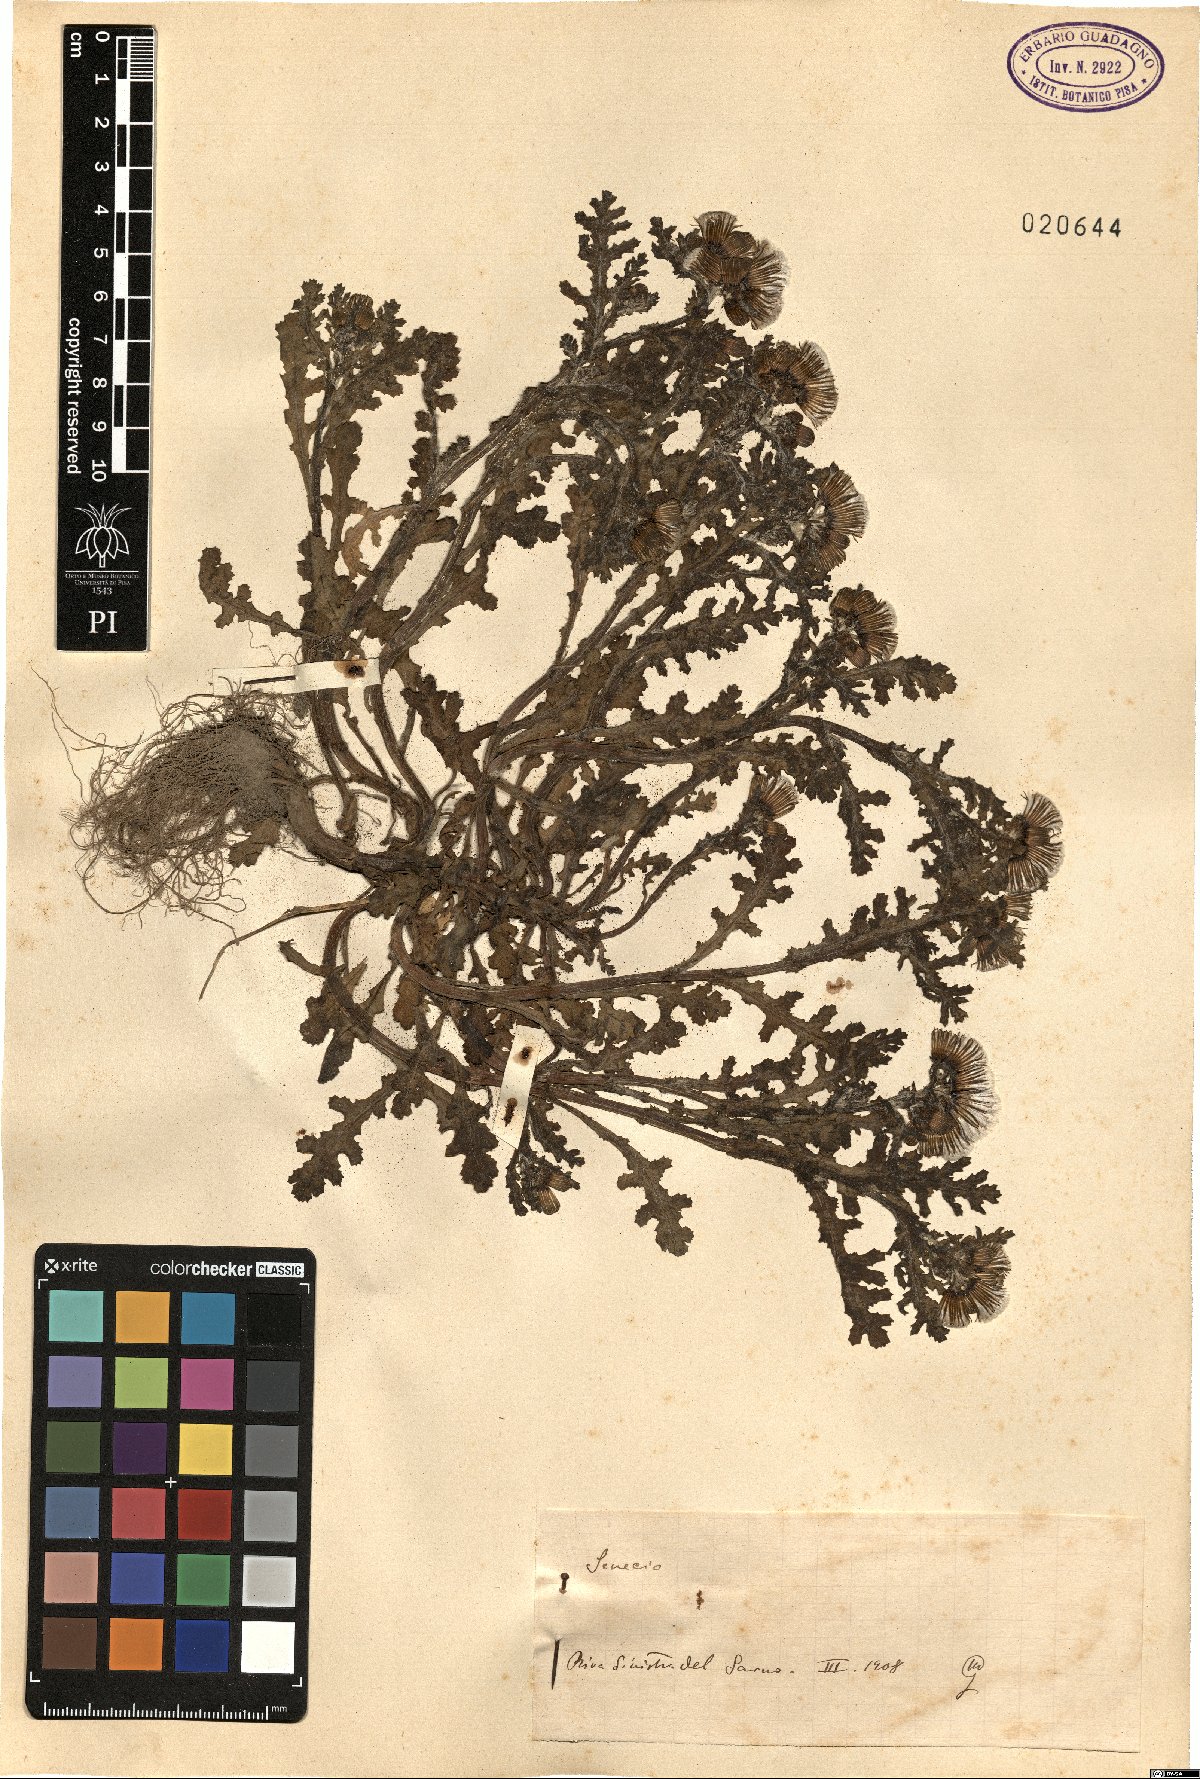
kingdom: Plantae
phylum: Tracheophyta
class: Magnoliopsida
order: Asterales
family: Asteraceae
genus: Senecio
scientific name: Senecio
